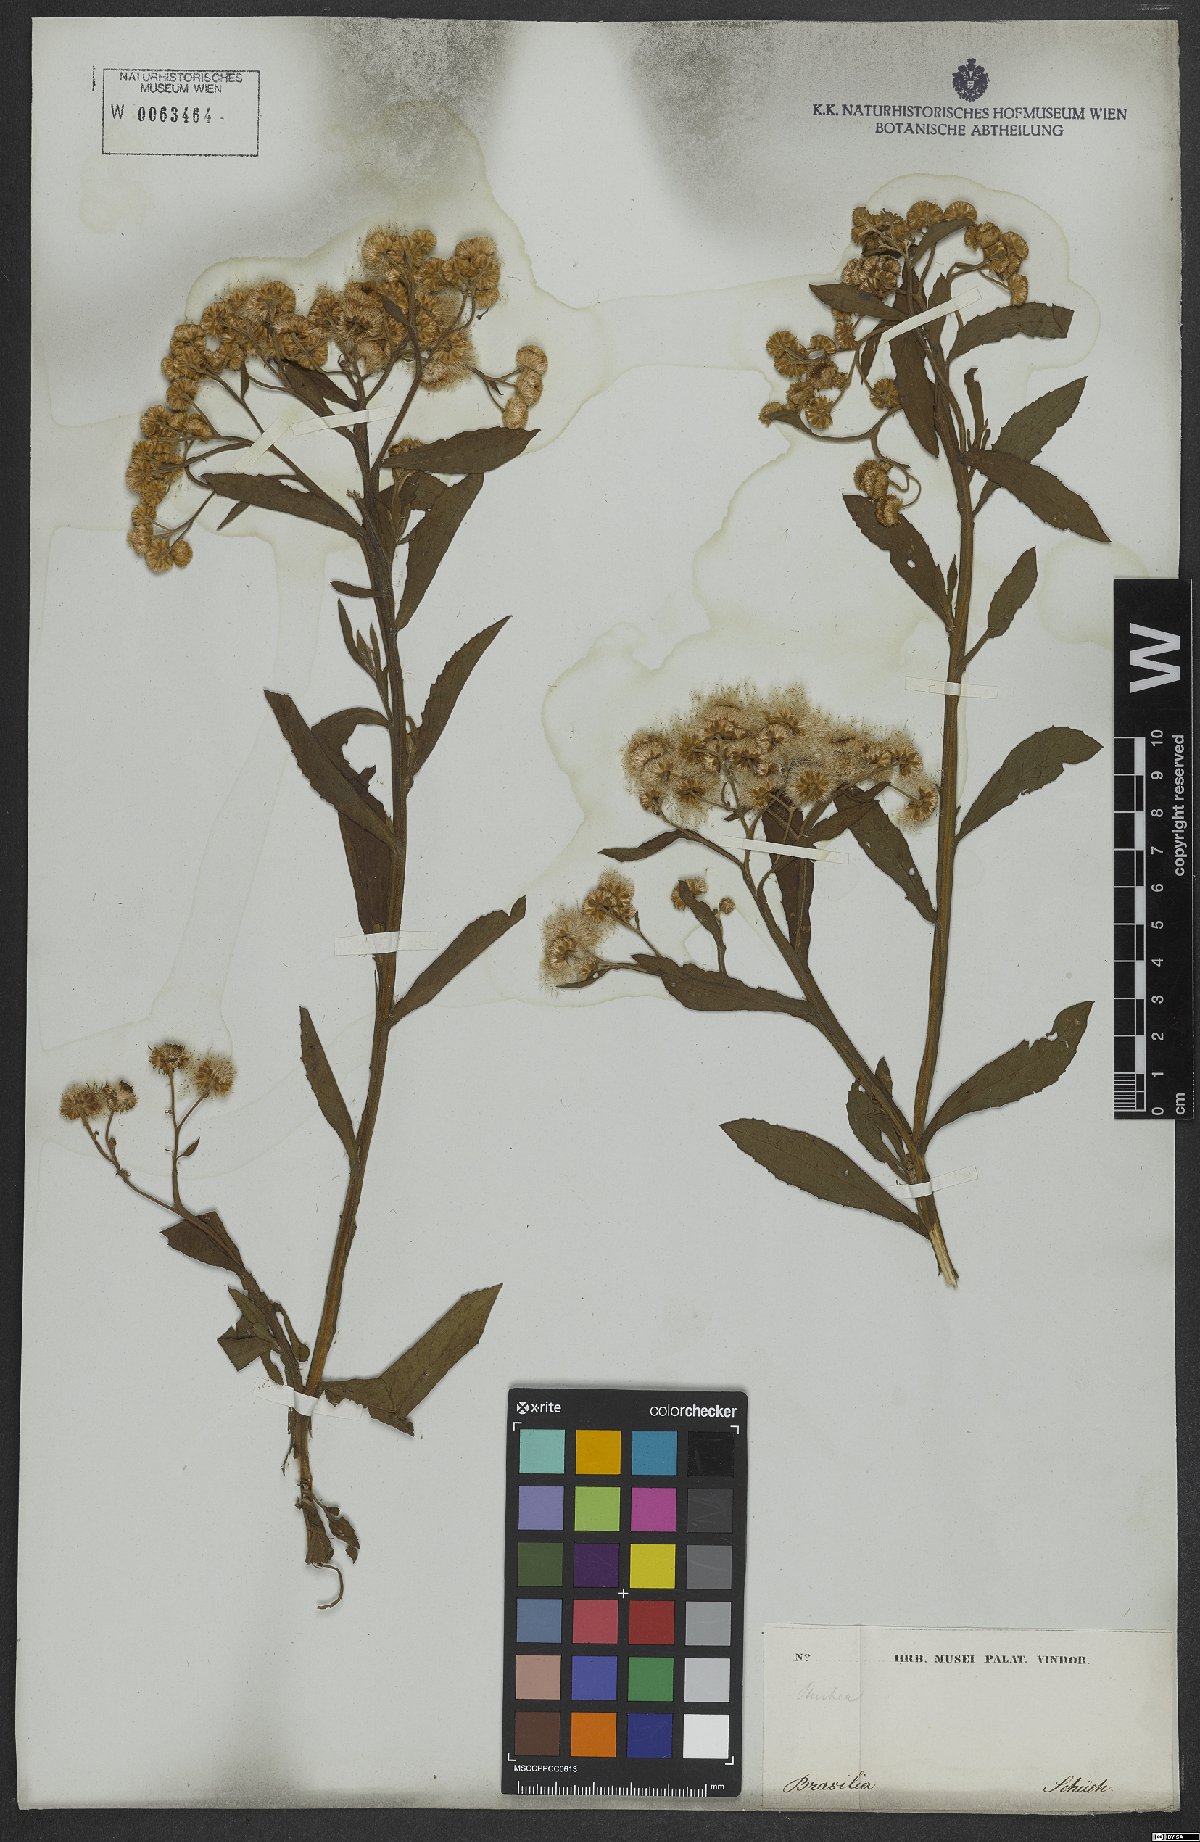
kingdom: Plantae
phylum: Tracheophyta
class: Magnoliopsida
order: Asterales
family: Asteraceae
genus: Pluchea
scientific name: Pluchea sagittalis
